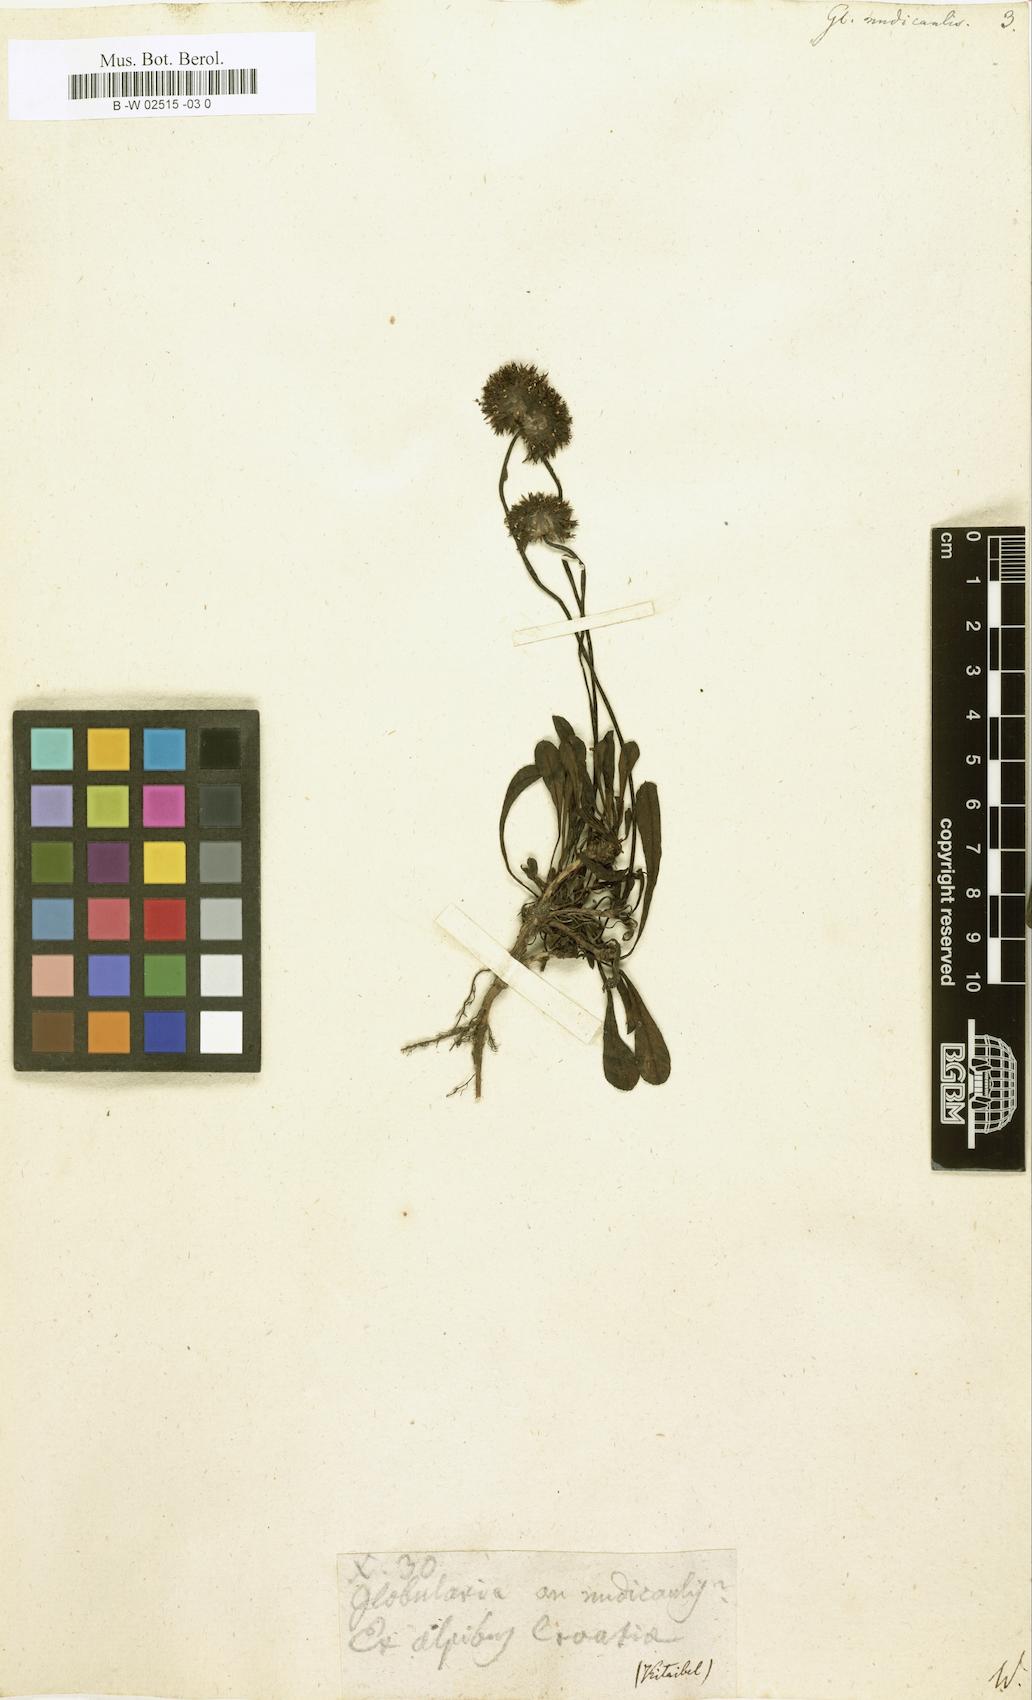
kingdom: Plantae
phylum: Tracheophyta
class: Magnoliopsida
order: Lamiales
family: Plantaginaceae
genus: Globularia
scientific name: Globularia nudicaulis
